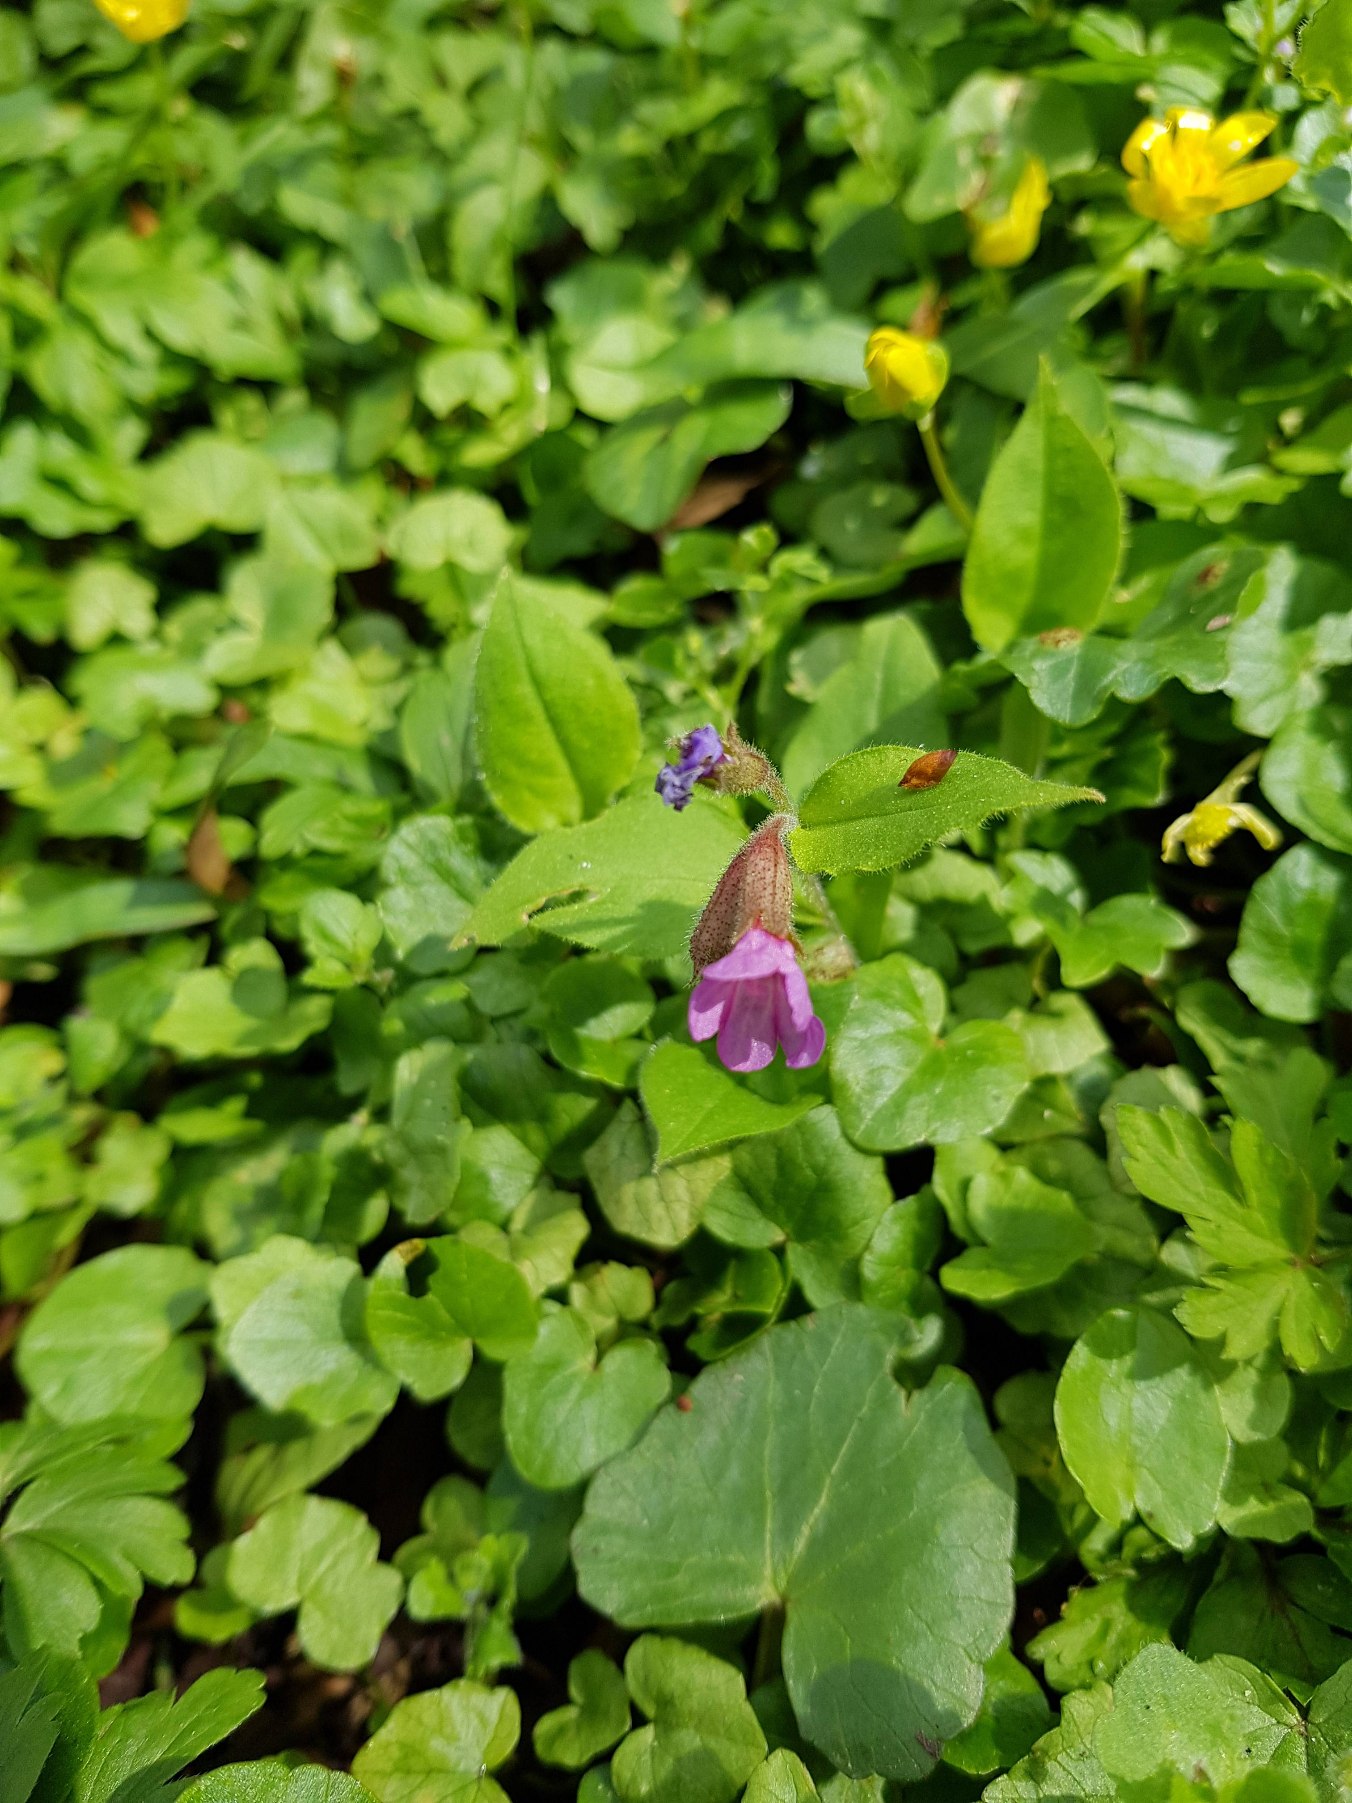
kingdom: Plantae
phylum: Tracheophyta
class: Magnoliopsida
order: Boraginales
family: Boraginaceae
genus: Pulmonaria
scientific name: Pulmonaria obscura
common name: Almindelig lungeurt
